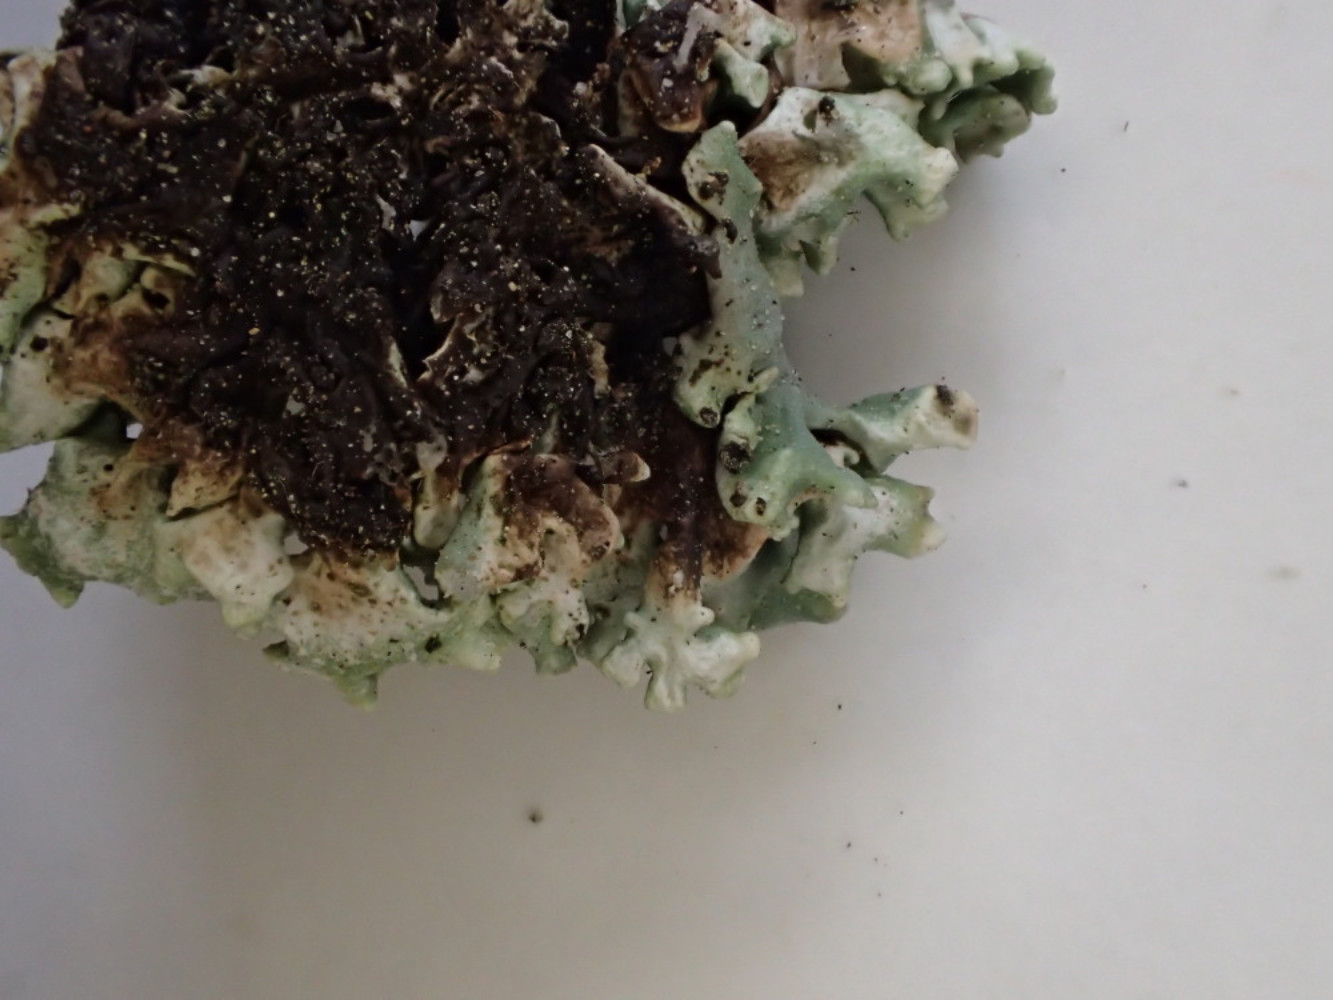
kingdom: Fungi
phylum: Ascomycota
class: Lecanoromycetes
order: Lecanorales
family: Parmeliaceae
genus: Hypogymnia
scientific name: Hypogymnia tubulosa
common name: finger-kvistlav
